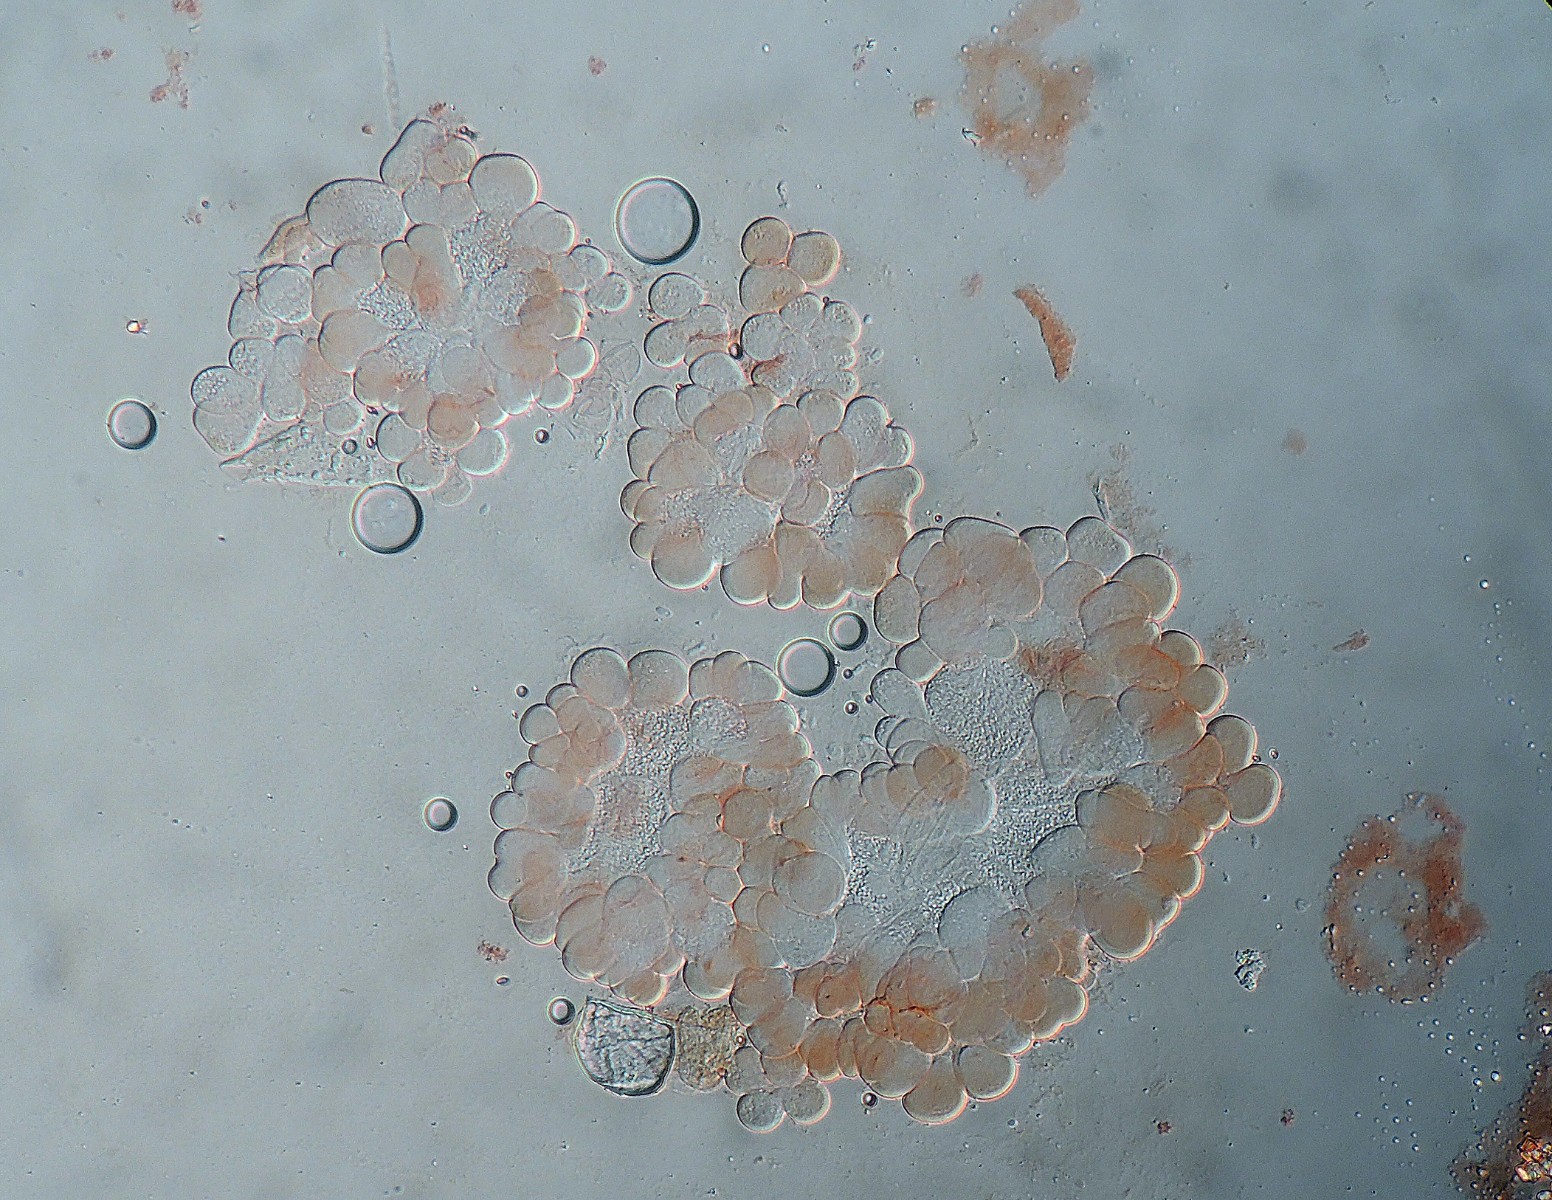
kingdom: Fungi
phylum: Ascomycota
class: Leotiomycetes
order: Helotiales
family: Sclerotiniaceae
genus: Cristulariella
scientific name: Cristulariella depraedans
